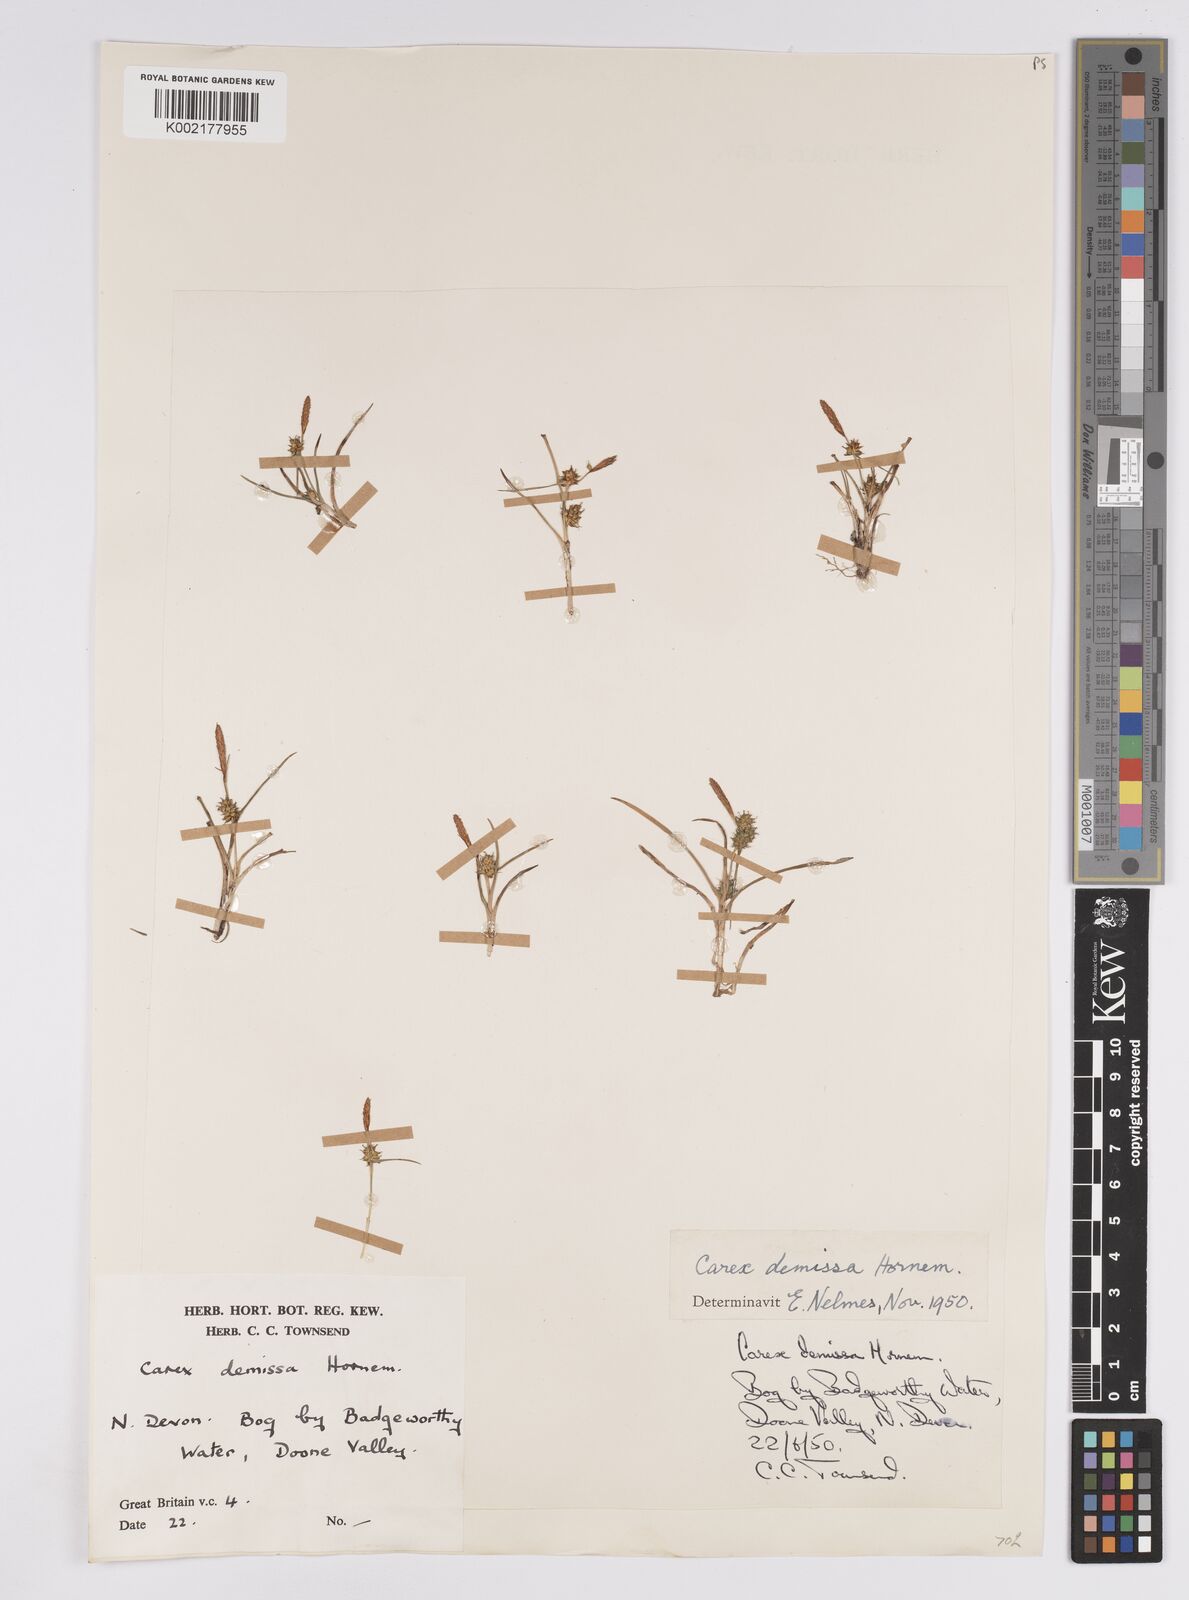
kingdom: Plantae
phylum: Tracheophyta
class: Liliopsida
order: Poales
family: Cyperaceae
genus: Carex
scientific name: Carex demissa
